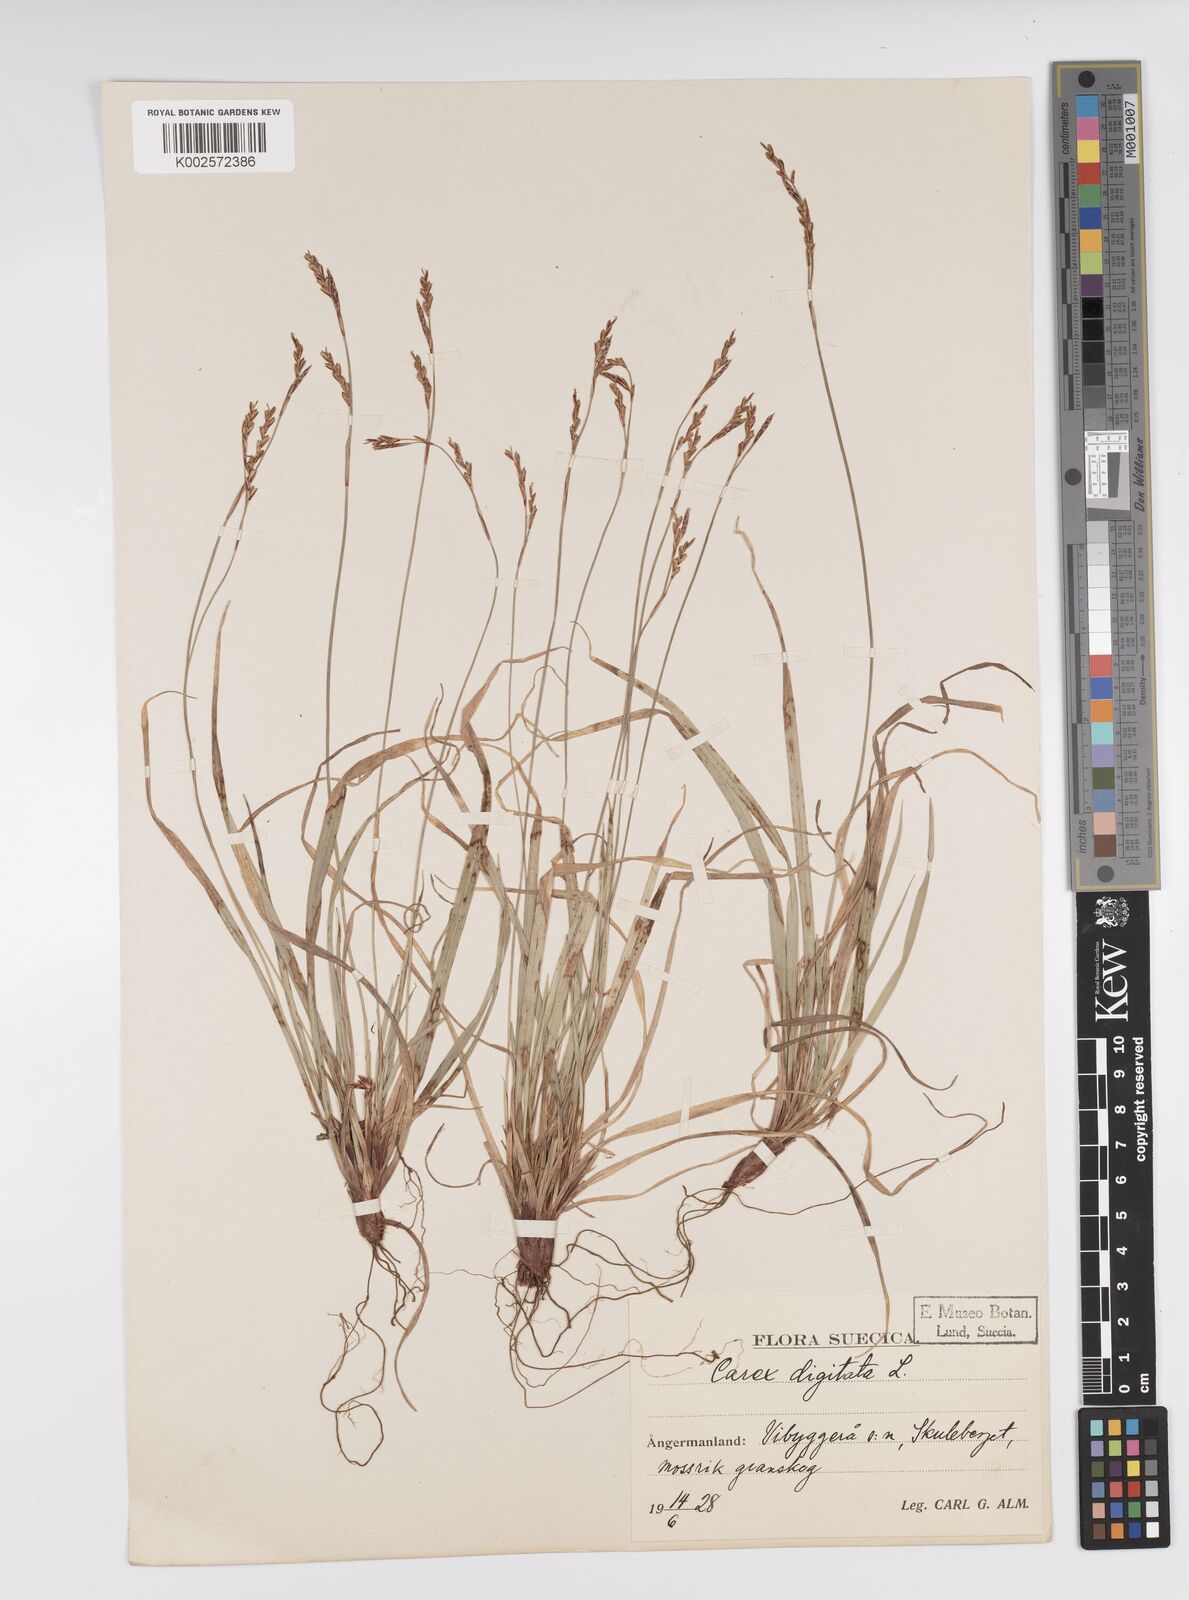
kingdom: Plantae
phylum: Tracheophyta
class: Liliopsida
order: Poales
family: Cyperaceae
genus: Carex
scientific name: Carex digitata
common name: Fingered sedge
